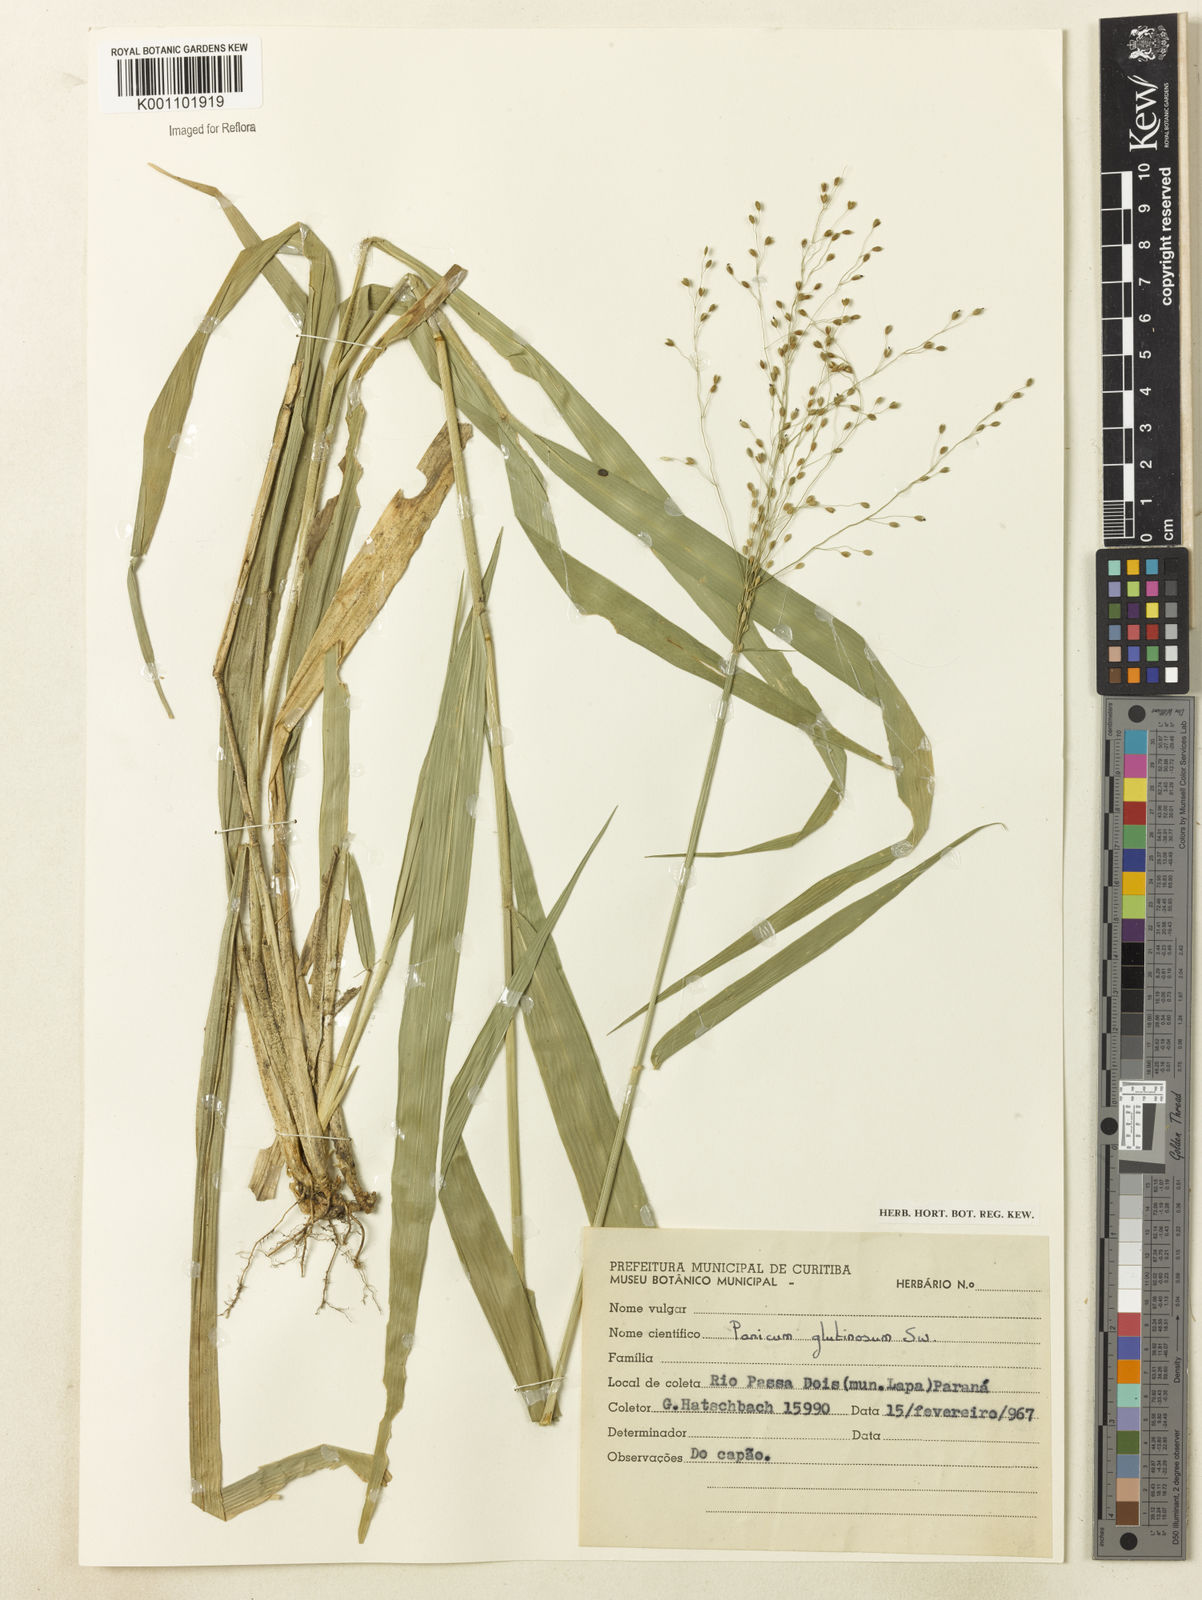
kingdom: Plantae
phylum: Tracheophyta
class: Liliopsida
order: Poales
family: Poaceae
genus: Homolepis
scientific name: Homolepis glutinosa
